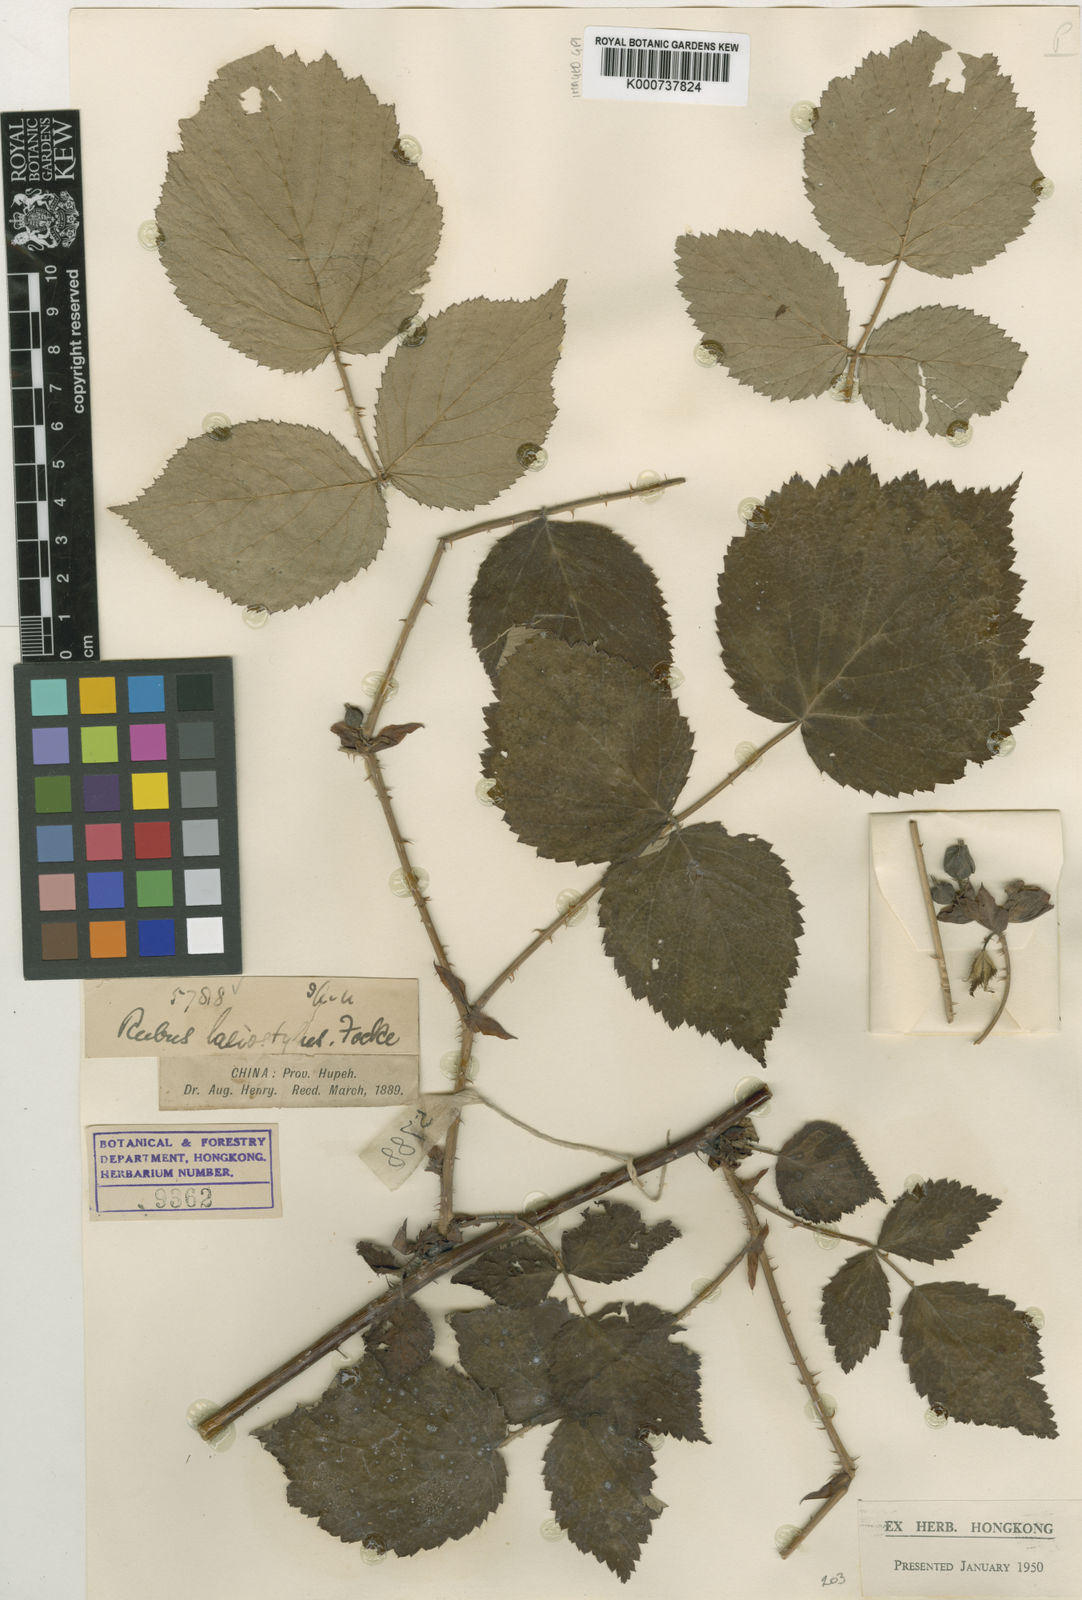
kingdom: Plantae
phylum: Tracheophyta
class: Magnoliopsida
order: Rosales
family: Rosaceae
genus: Rubus
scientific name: Rubus
